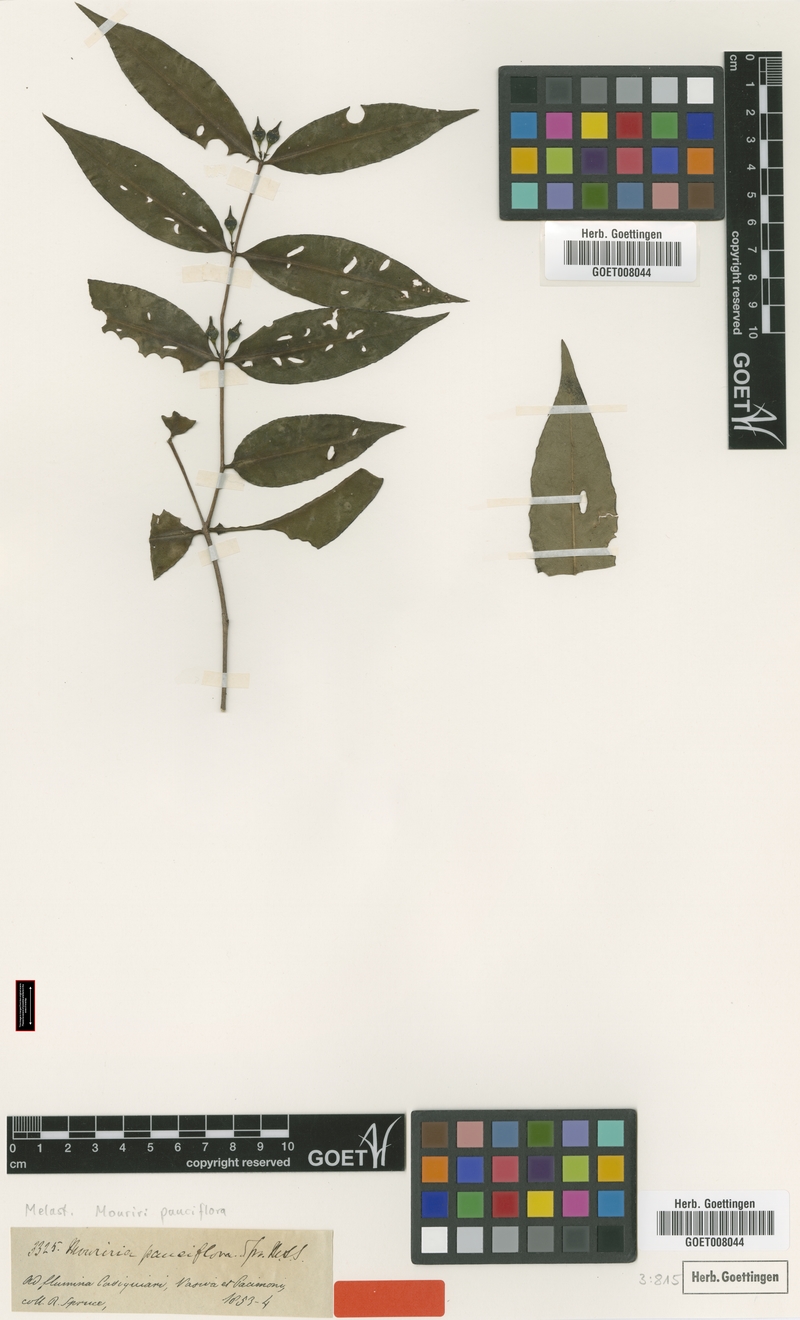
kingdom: Plantae
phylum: Tracheophyta
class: Magnoliopsida
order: Myrtales
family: Melastomataceae
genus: Mouriri
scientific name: Mouriri pauciflora
